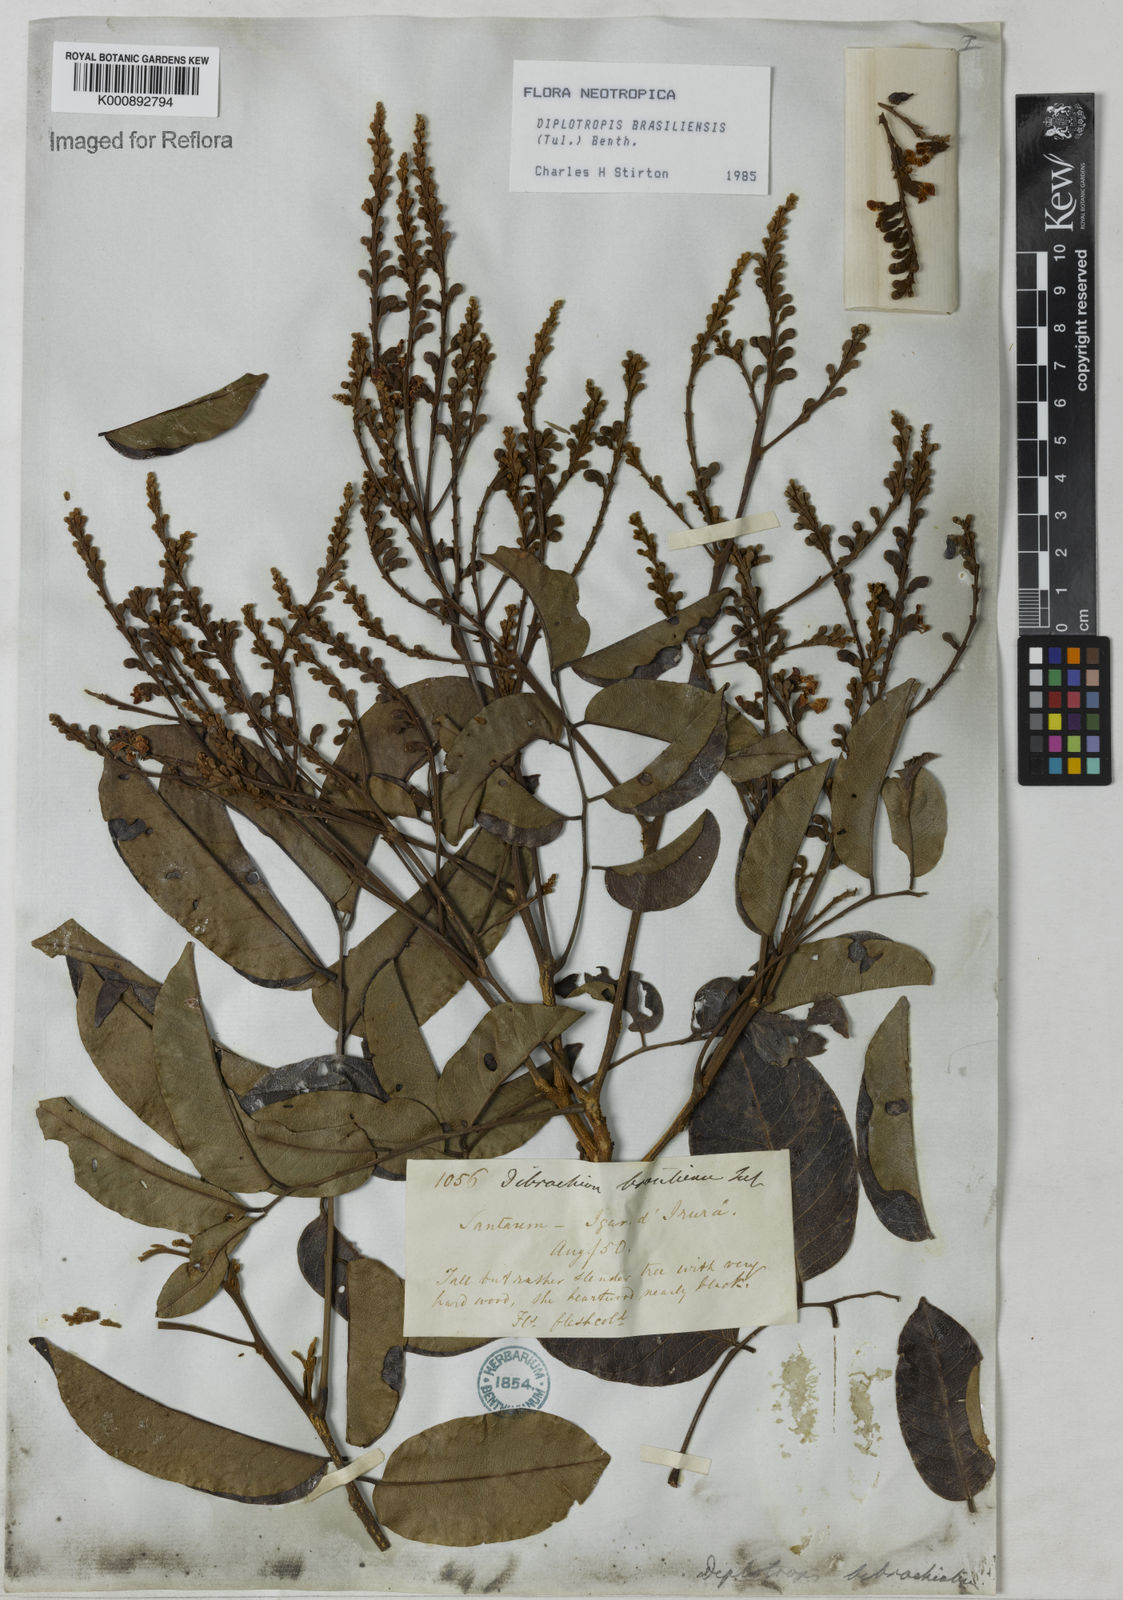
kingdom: Plantae
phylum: Tracheophyta
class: Magnoliopsida
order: Fabales
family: Fabaceae
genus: Diplotropis
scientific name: Diplotropis brasiliensis
